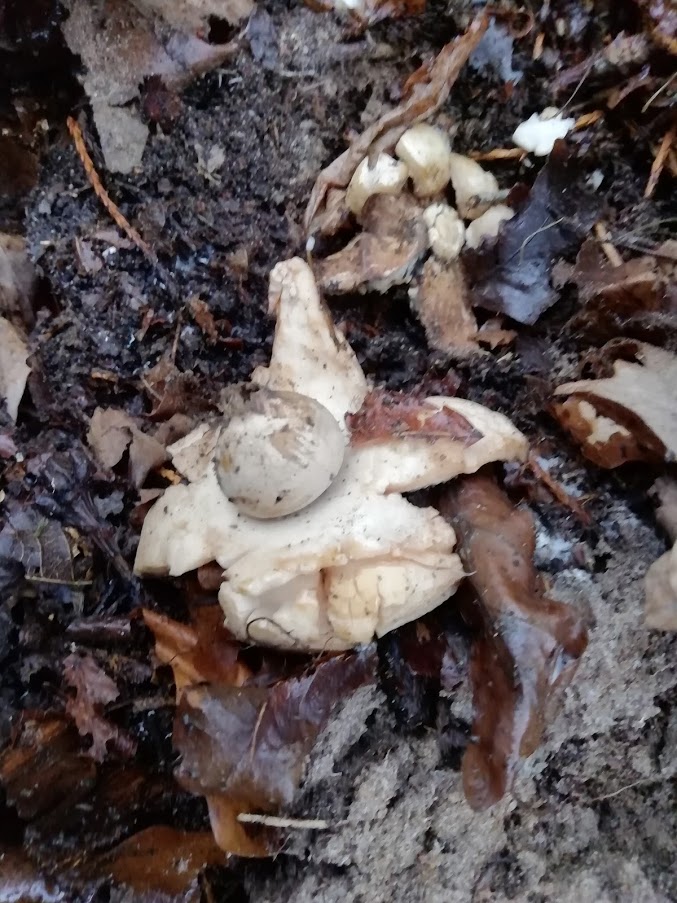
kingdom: Fungi
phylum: Basidiomycota
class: Agaricomycetes
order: Geastrales
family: Geastraceae
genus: Geastrum
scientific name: Geastrum michelianum
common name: kødet stjernebold
